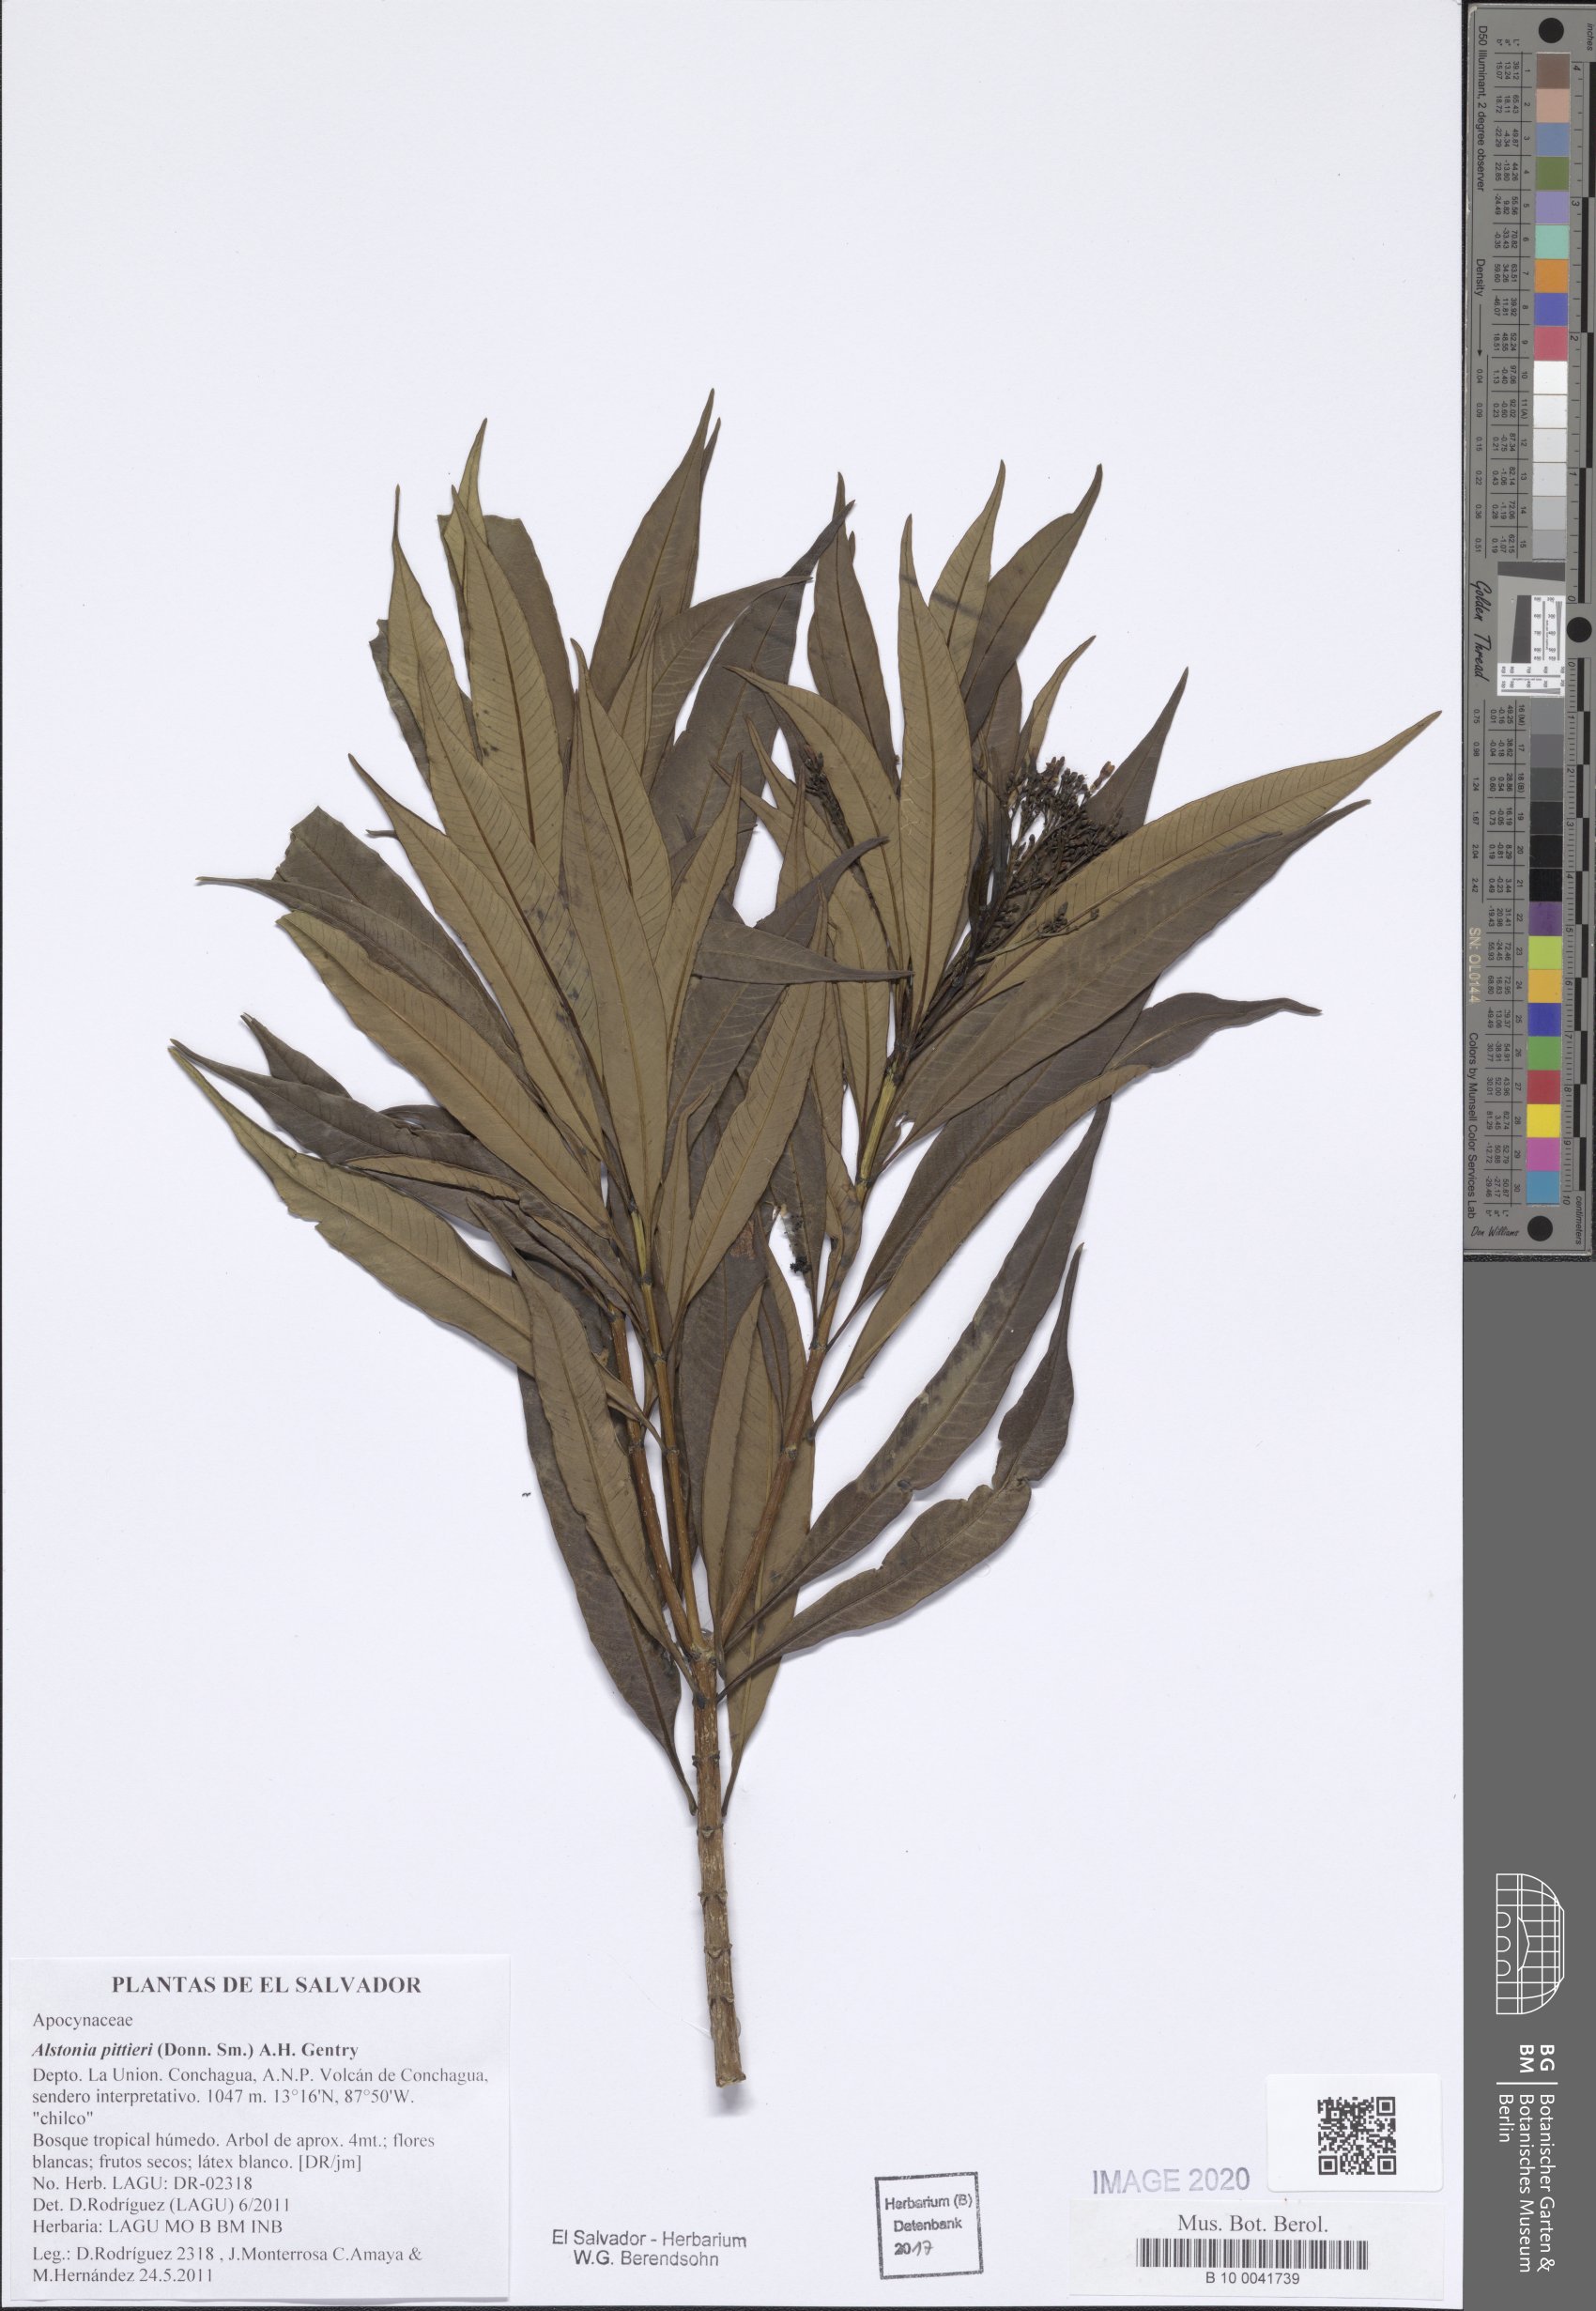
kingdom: Plantae
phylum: Tracheophyta
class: Magnoliopsida
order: Gentianales
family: Apocynaceae
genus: Tonduzia
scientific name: Tonduzia longifolia
